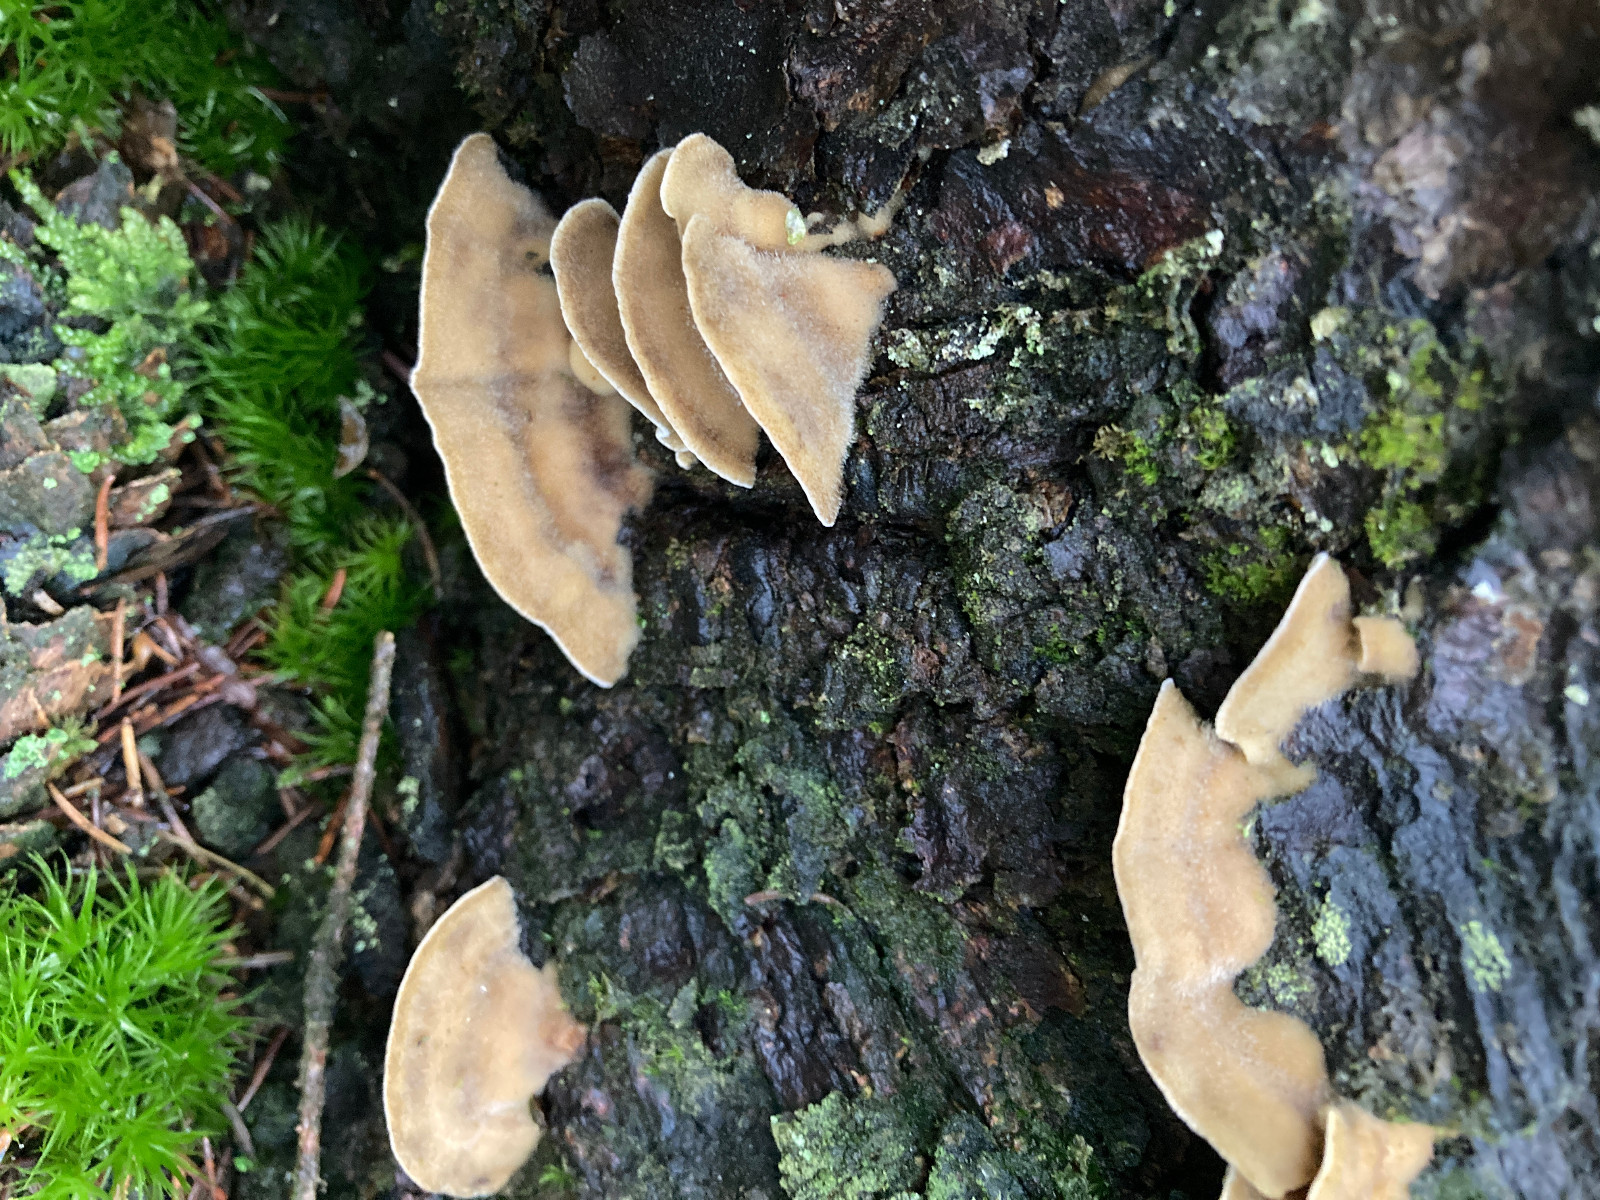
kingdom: Fungi
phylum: Basidiomycota
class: Agaricomycetes
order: Polyporales
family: Phanerochaetaceae
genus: Bjerkandera
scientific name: Bjerkandera adusta
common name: sveden sodporesvamp
